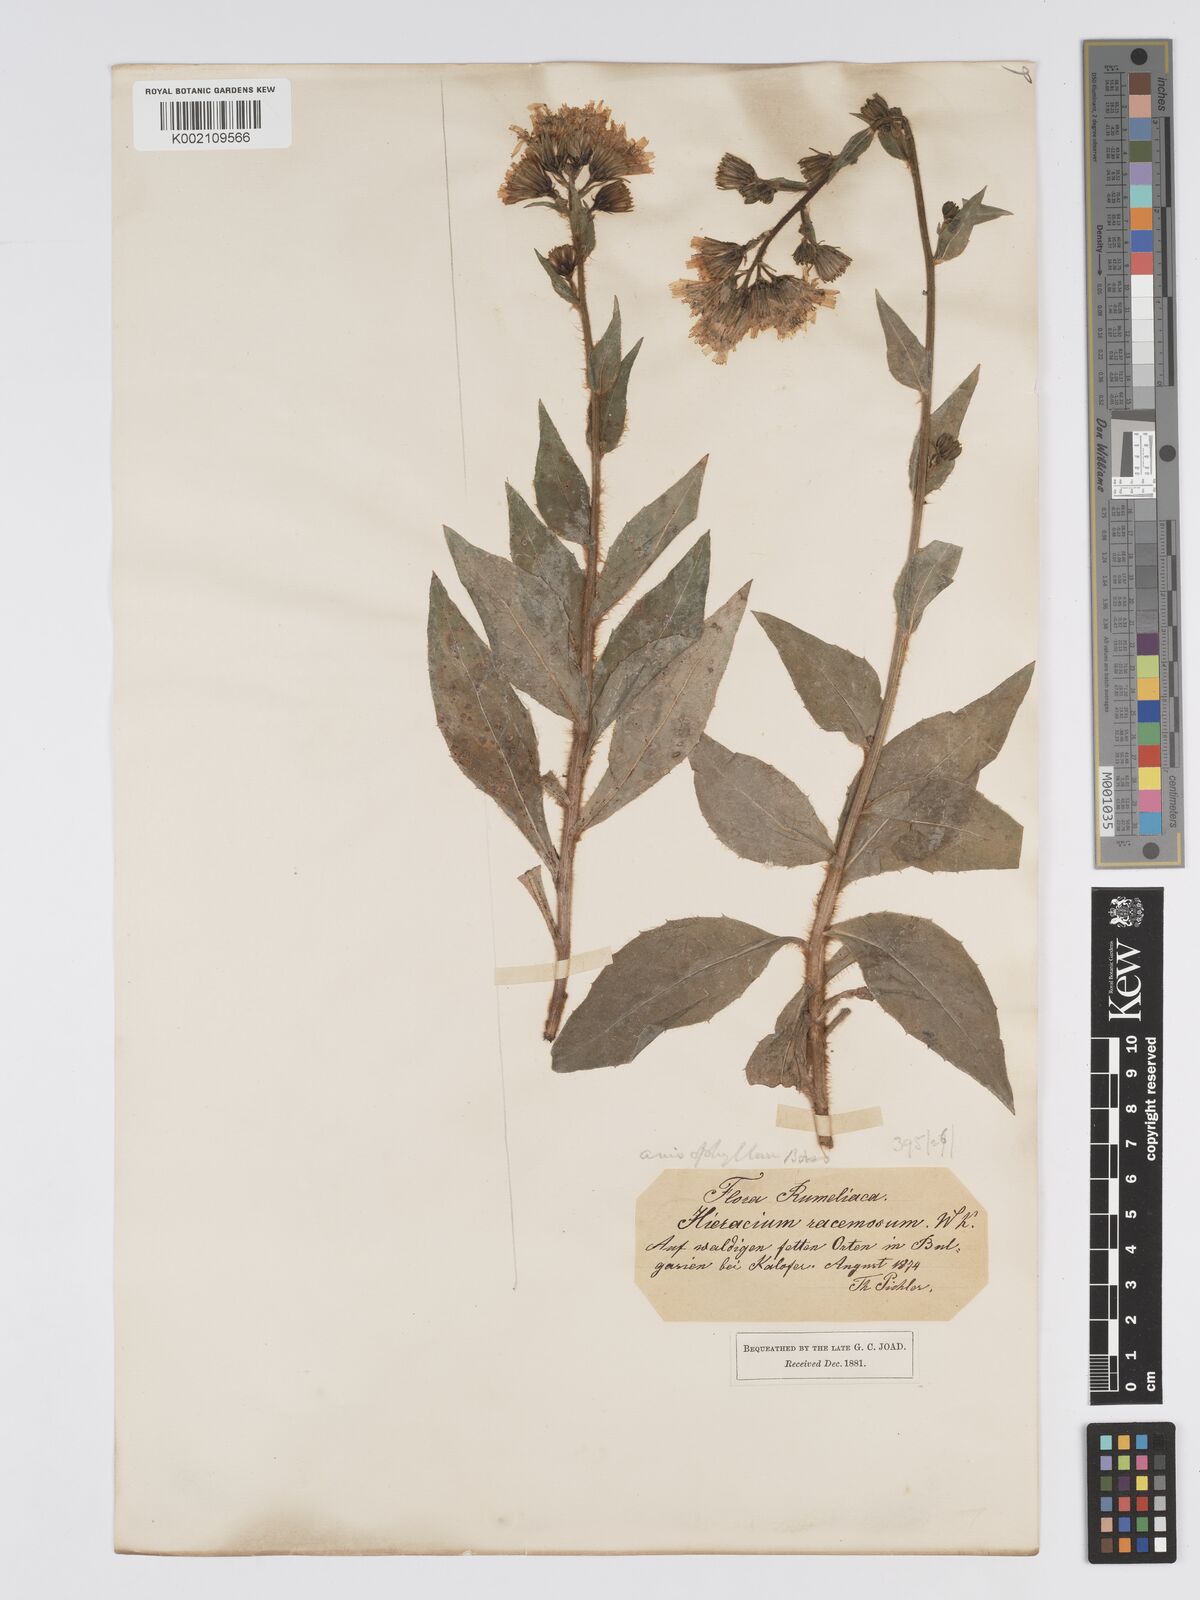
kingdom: Plantae
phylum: Tracheophyta
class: Magnoliopsida
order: Asterales
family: Asteraceae
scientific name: Asteraceae
